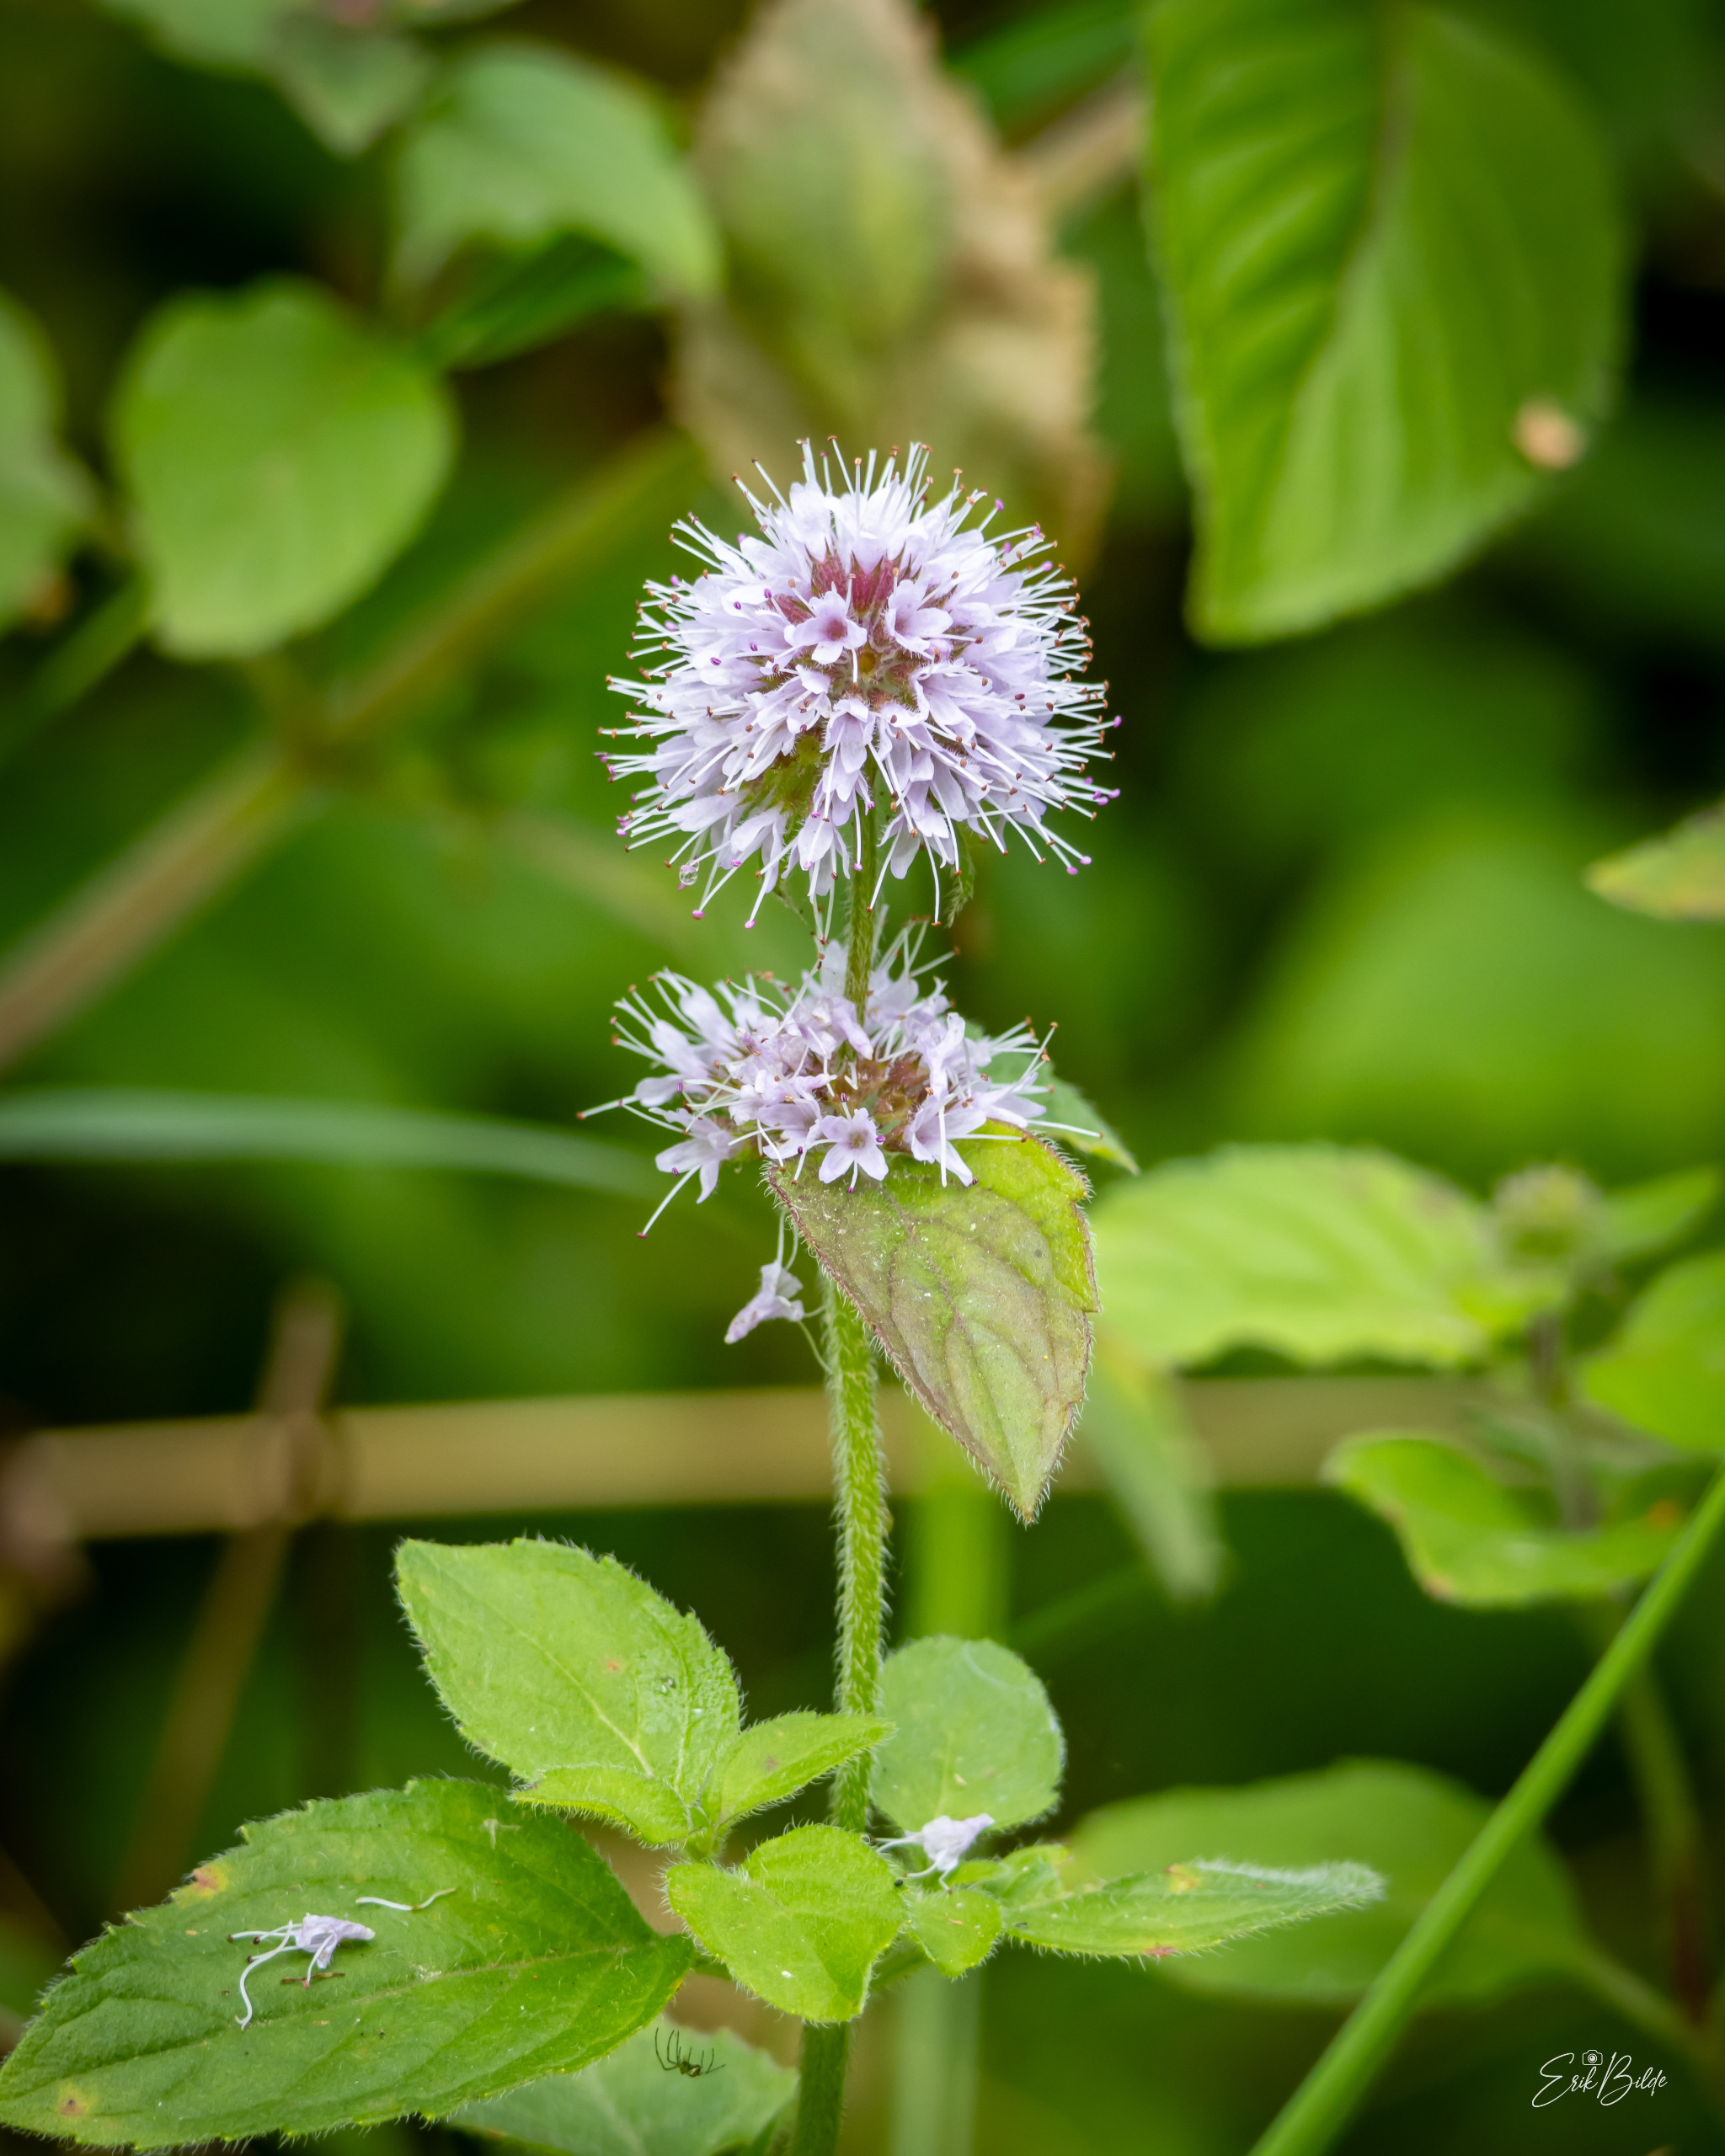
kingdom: Plantae
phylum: Tracheophyta
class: Magnoliopsida
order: Lamiales
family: Lamiaceae
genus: Mentha
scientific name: Mentha aquatica
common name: Vand-mynte
